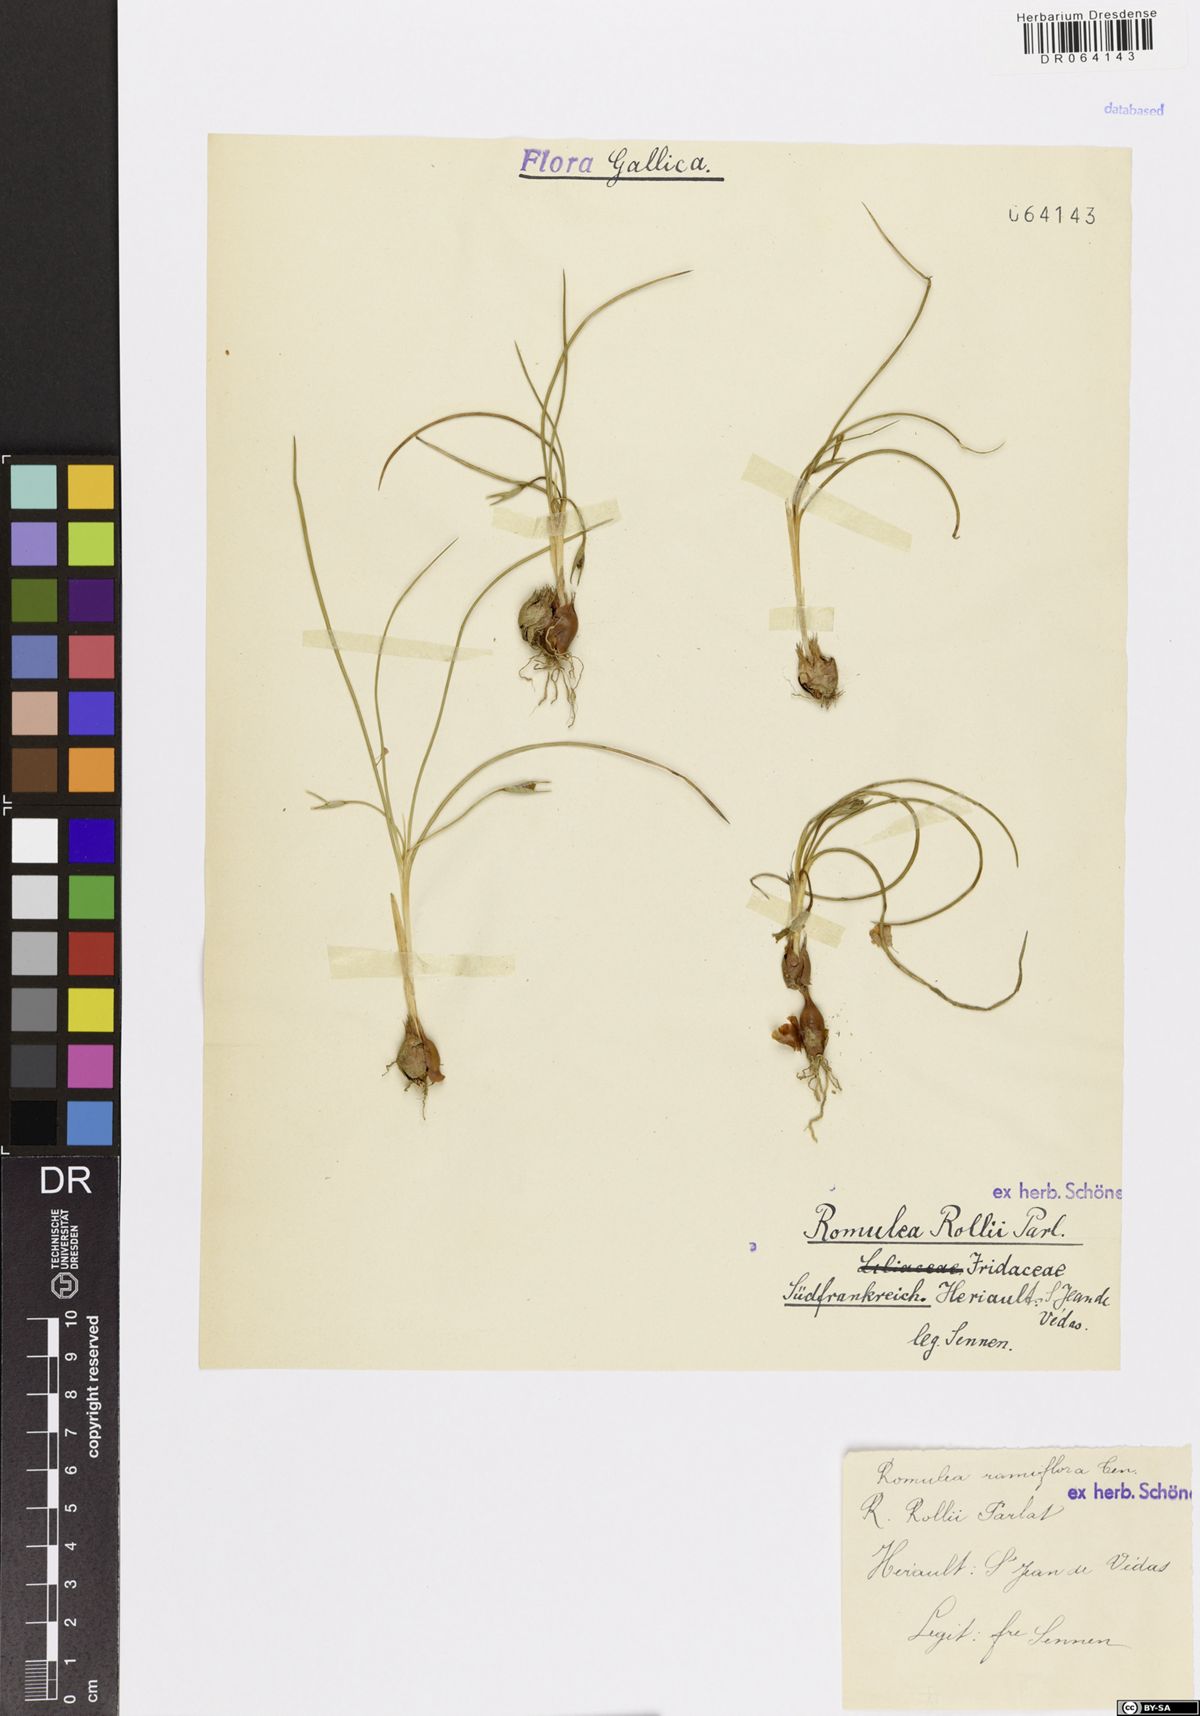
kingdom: Plantae
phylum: Tracheophyta
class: Liliopsida
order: Asparagales
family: Iridaceae
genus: Romulea
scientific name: Romulea ramiflora
